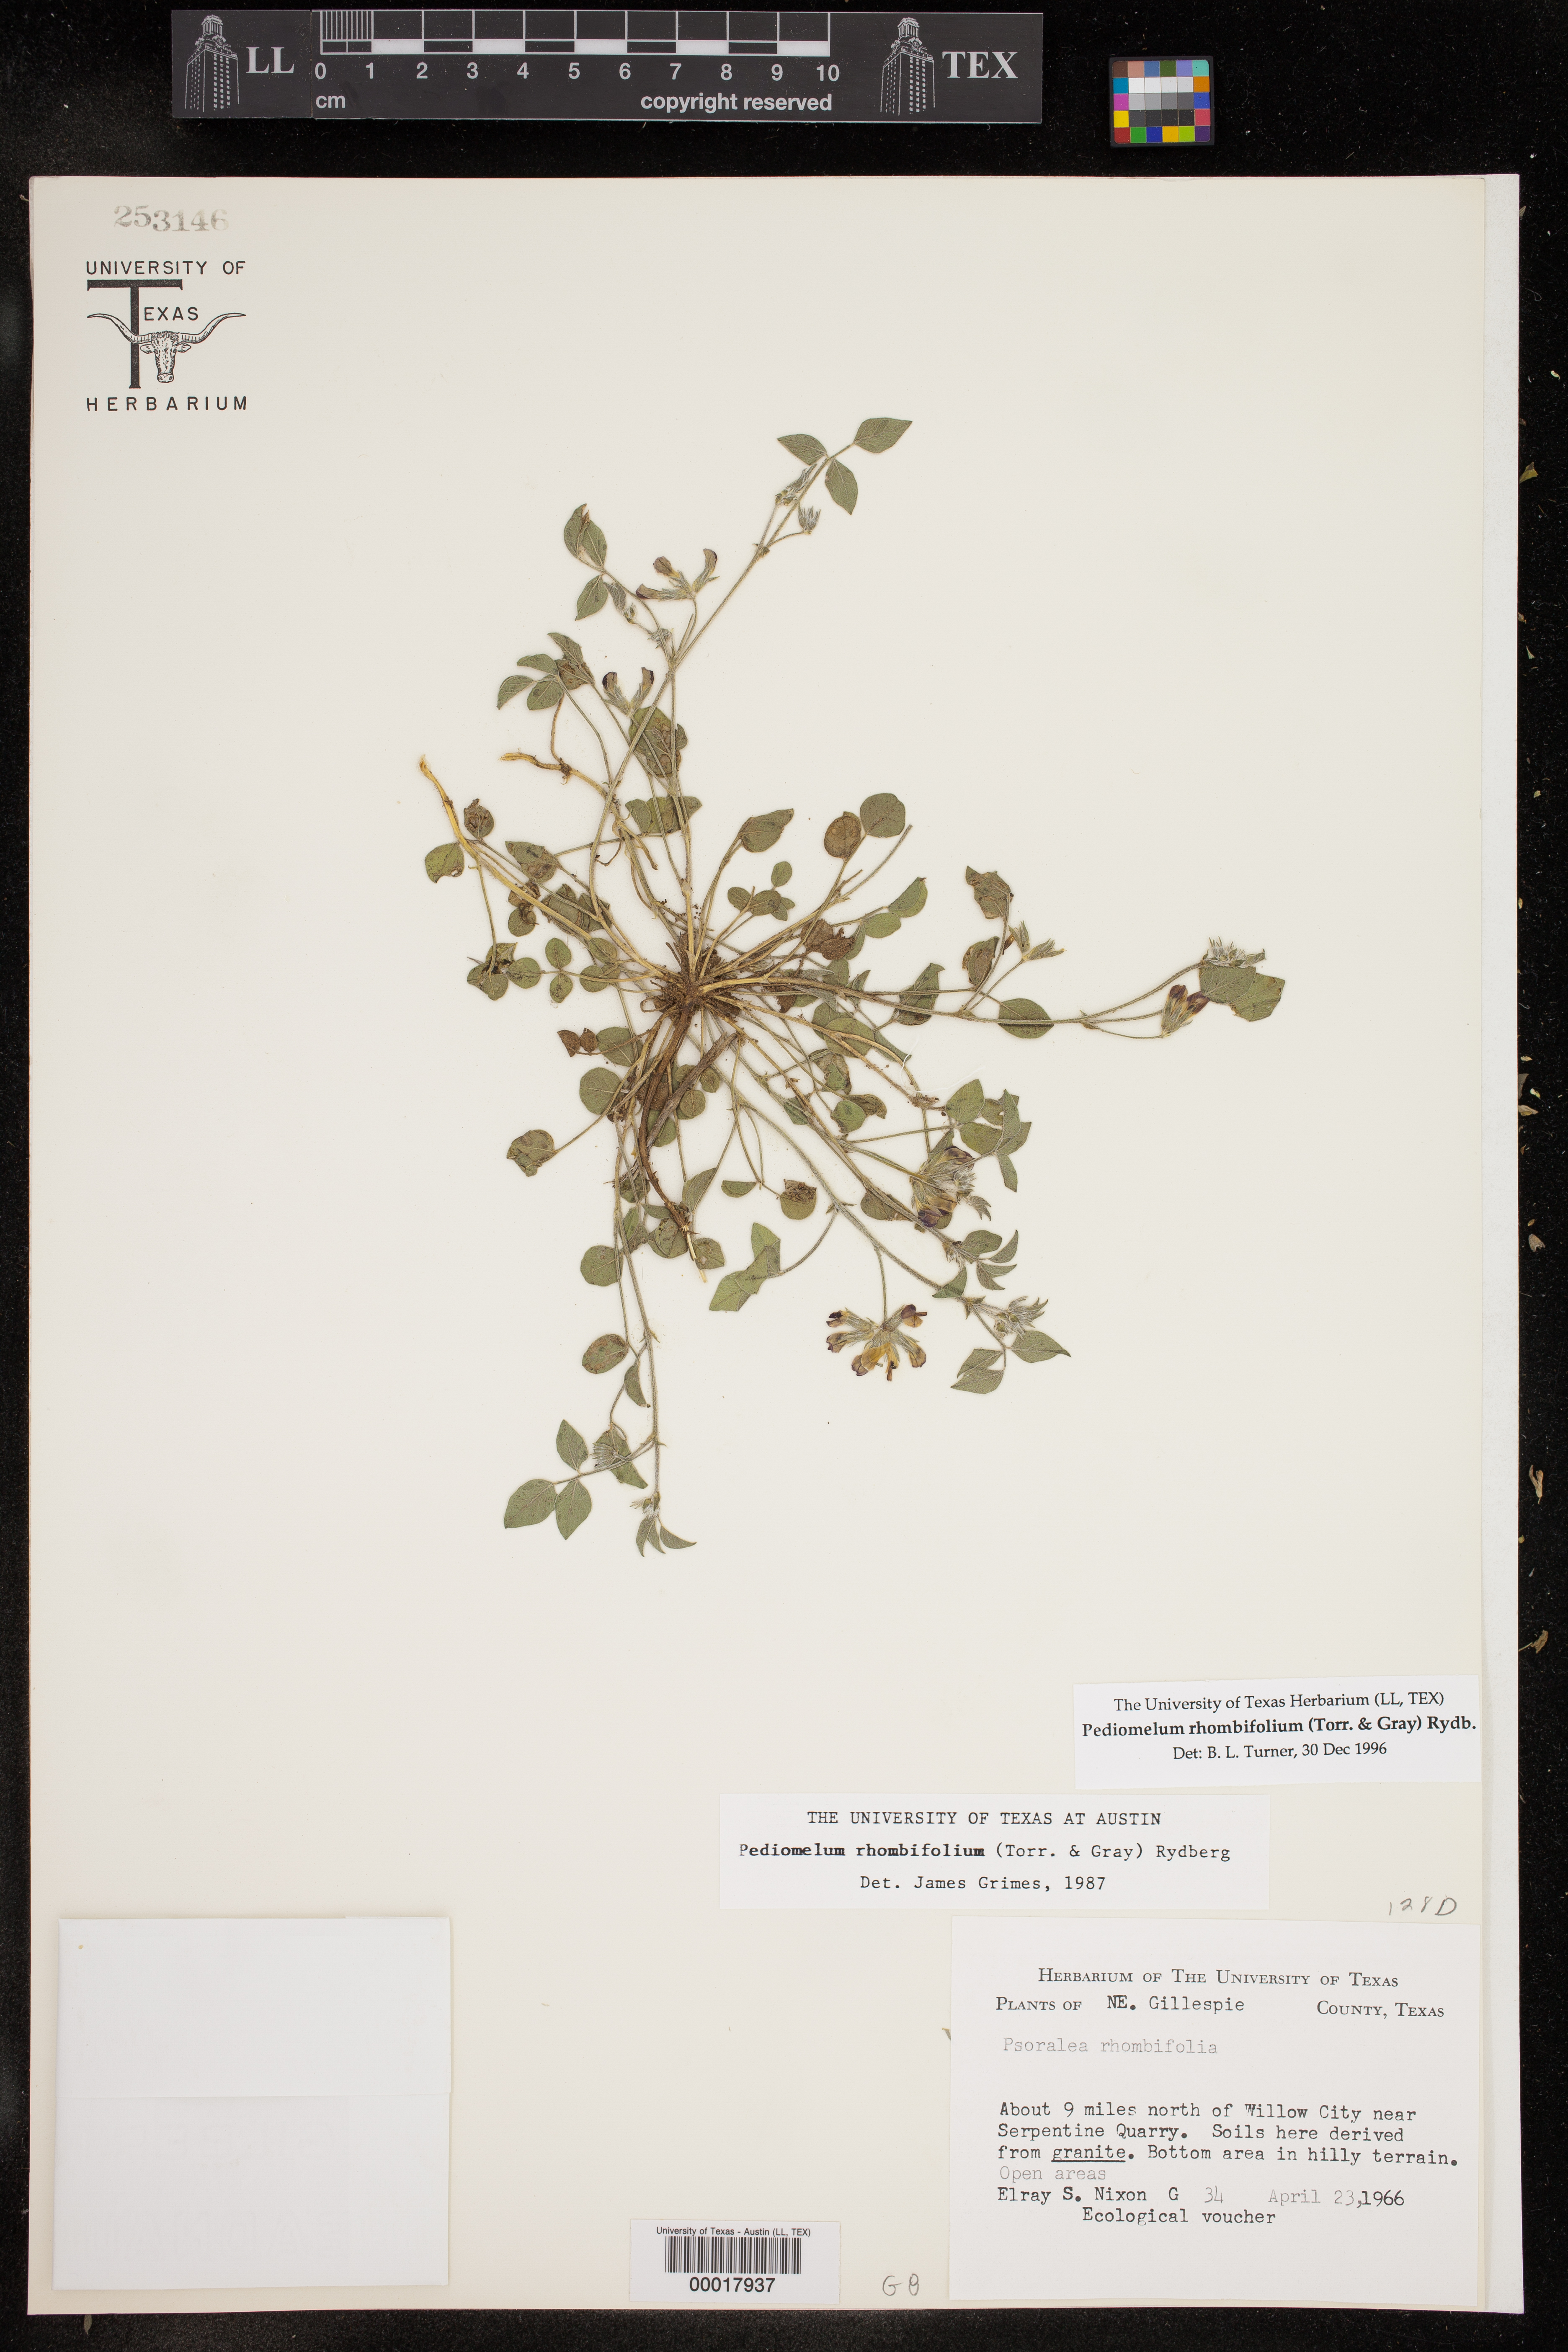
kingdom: Plantae
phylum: Tracheophyta
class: Magnoliopsida
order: Fabales
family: Fabaceae
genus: Pediomelum
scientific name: Pediomelum rhombifolium
